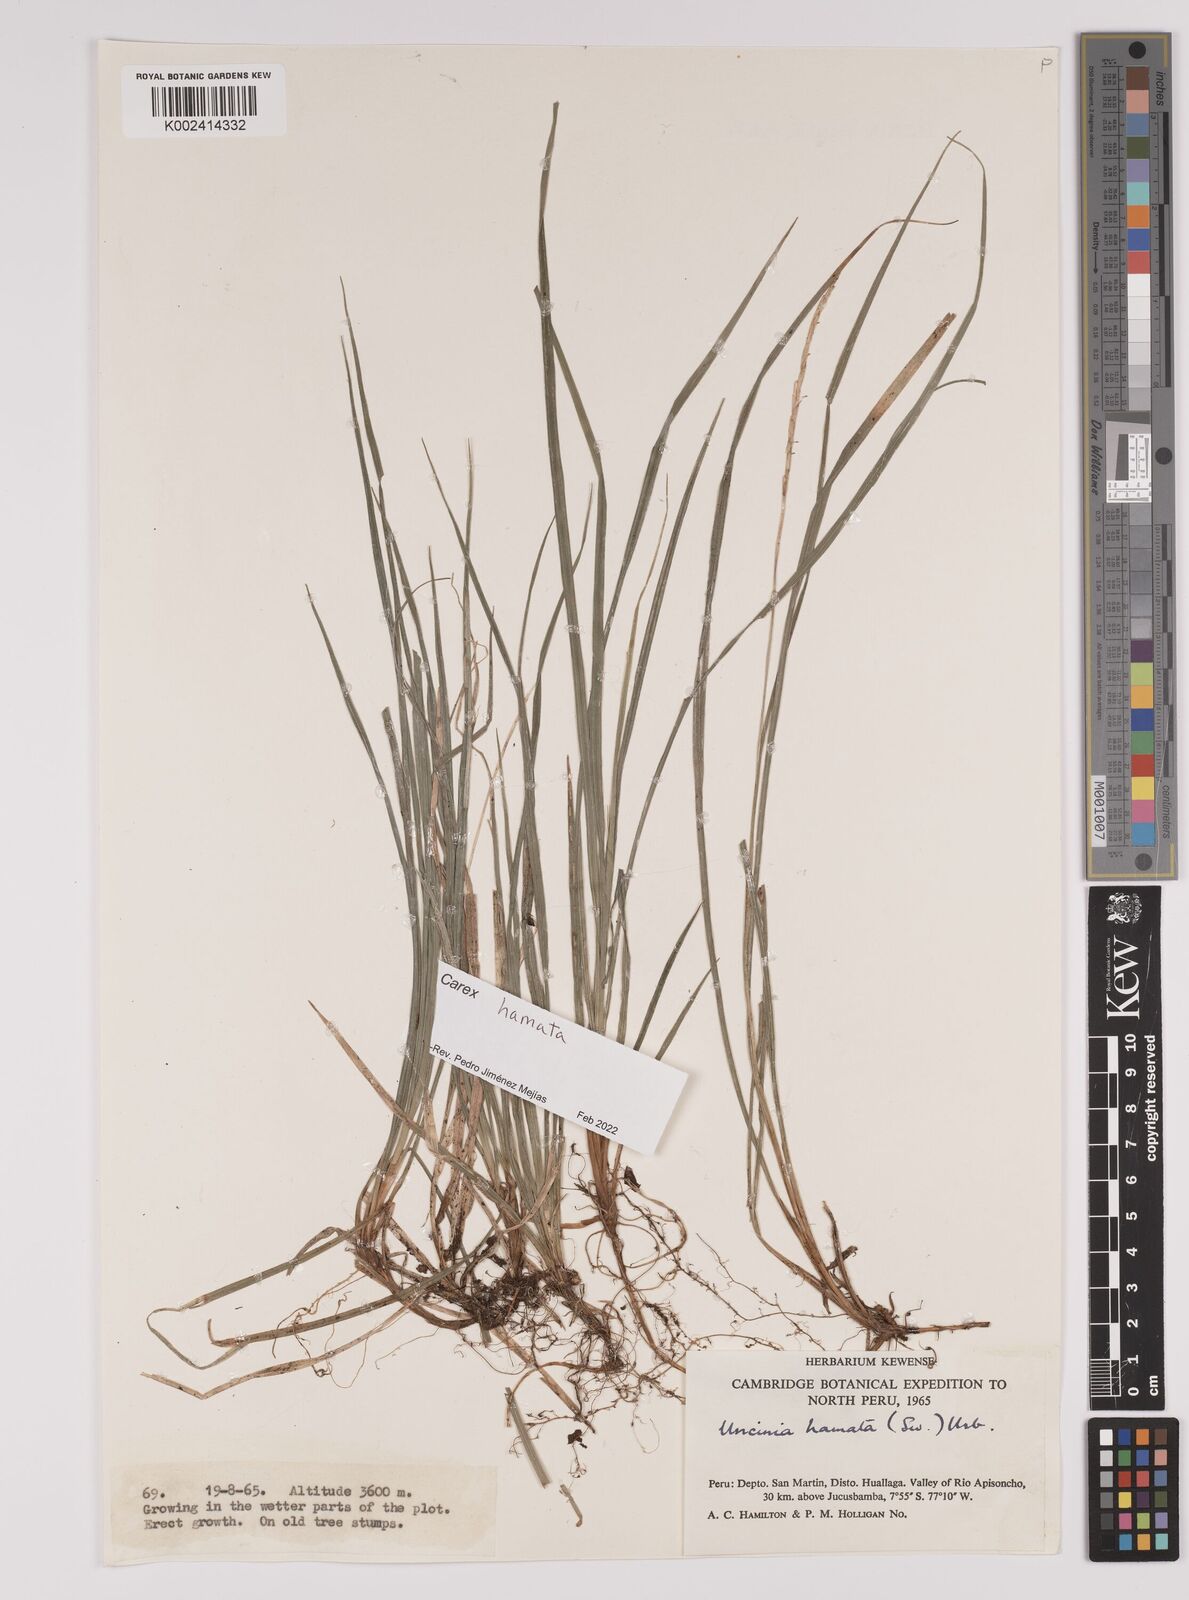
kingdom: Plantae
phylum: Tracheophyta
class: Liliopsida
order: Poales
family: Cyperaceae
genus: Carex
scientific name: Carex hamata
